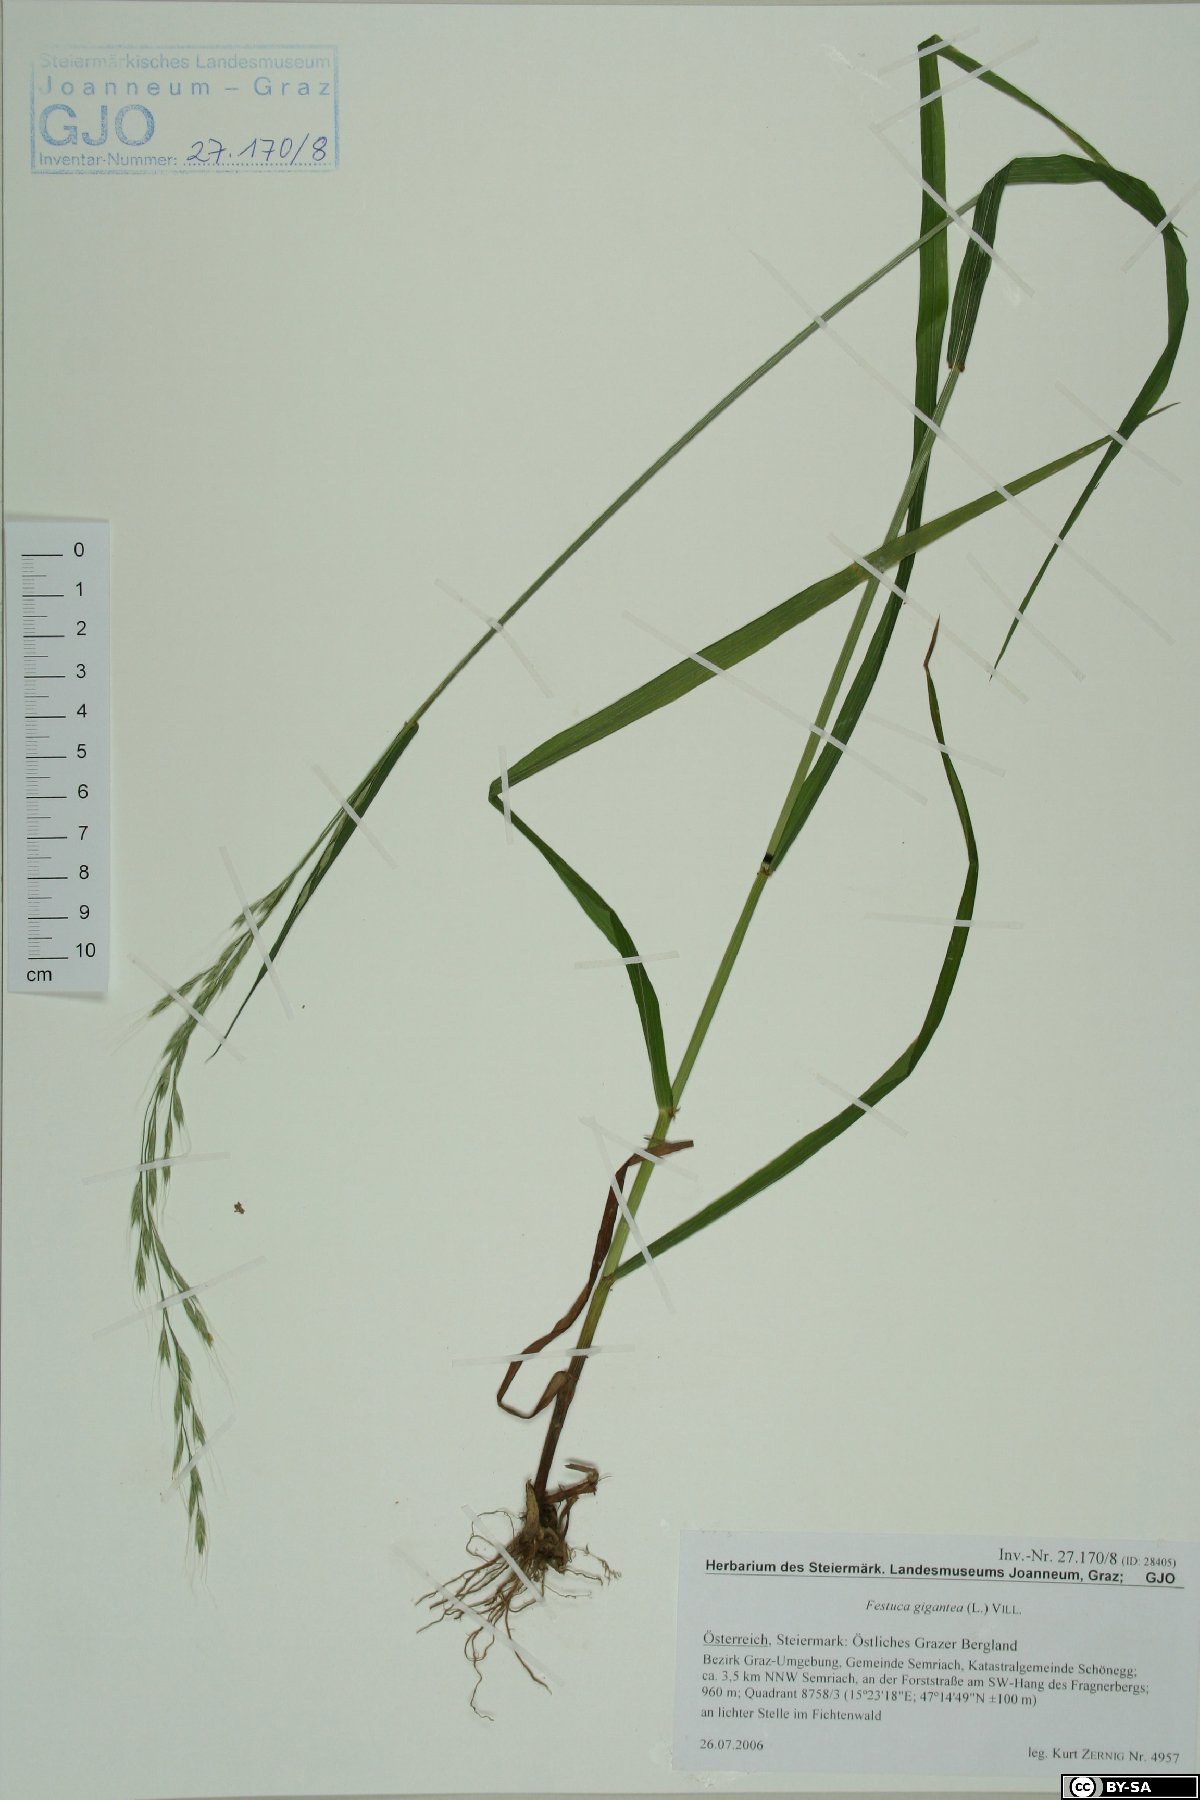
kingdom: Plantae
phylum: Tracheophyta
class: Liliopsida
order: Poales
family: Poaceae
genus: Lolium
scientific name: Lolium giganteum
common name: Giant fescue
